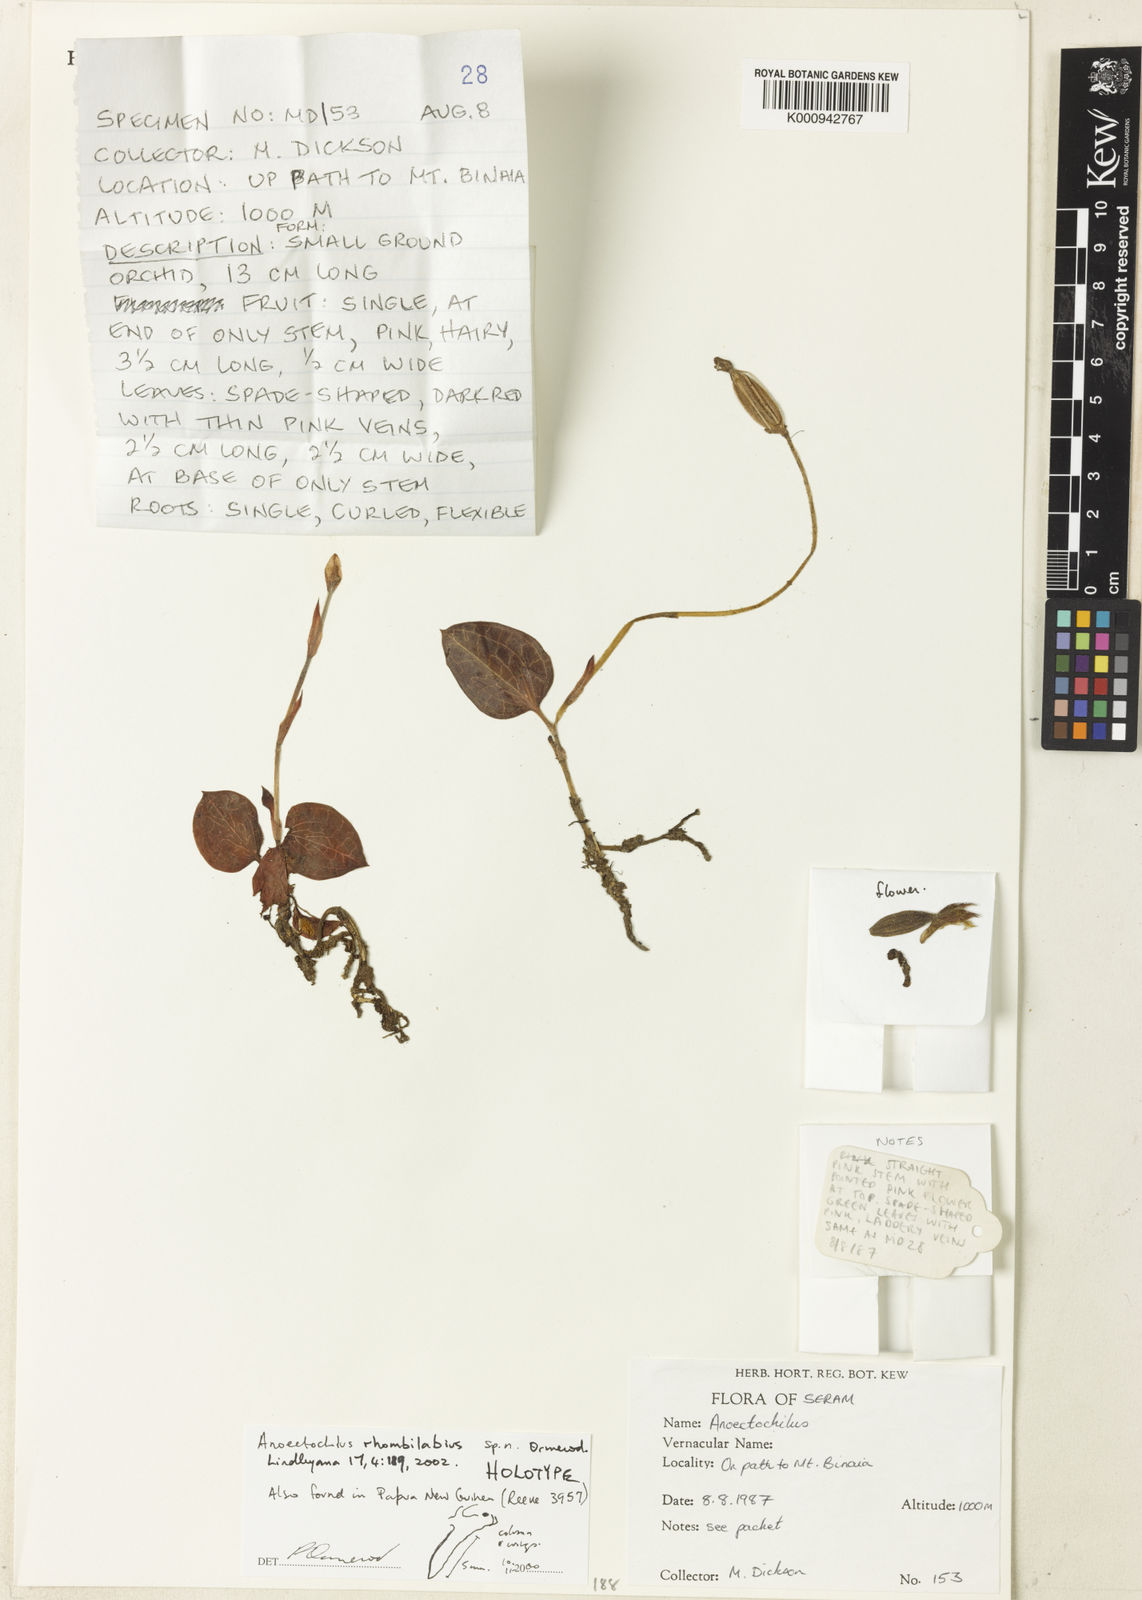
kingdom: Plantae
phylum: Tracheophyta
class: Liliopsida
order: Asparagales
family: Orchidaceae
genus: Anoectochilus
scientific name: Anoectochilus rhombilabius
